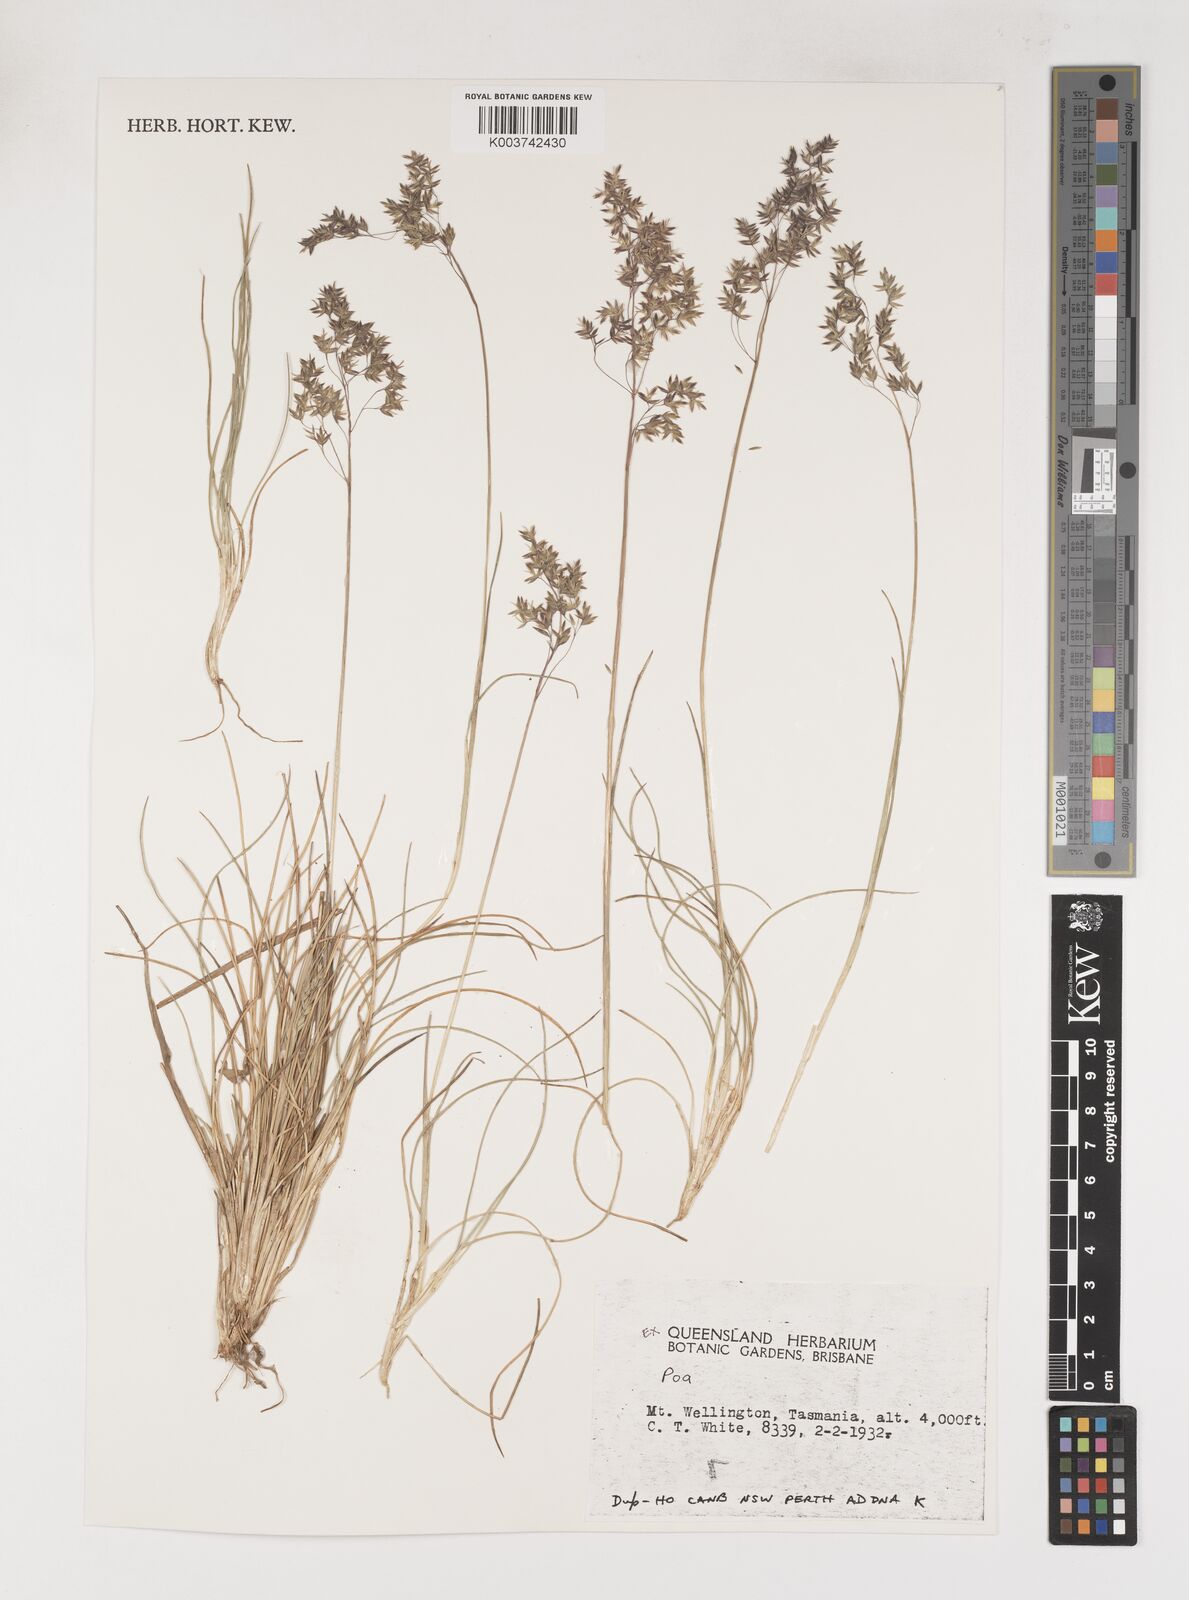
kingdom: Plantae
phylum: Tracheophyta
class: Liliopsida
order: Poales
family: Poaceae
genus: Poa
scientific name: Poa
